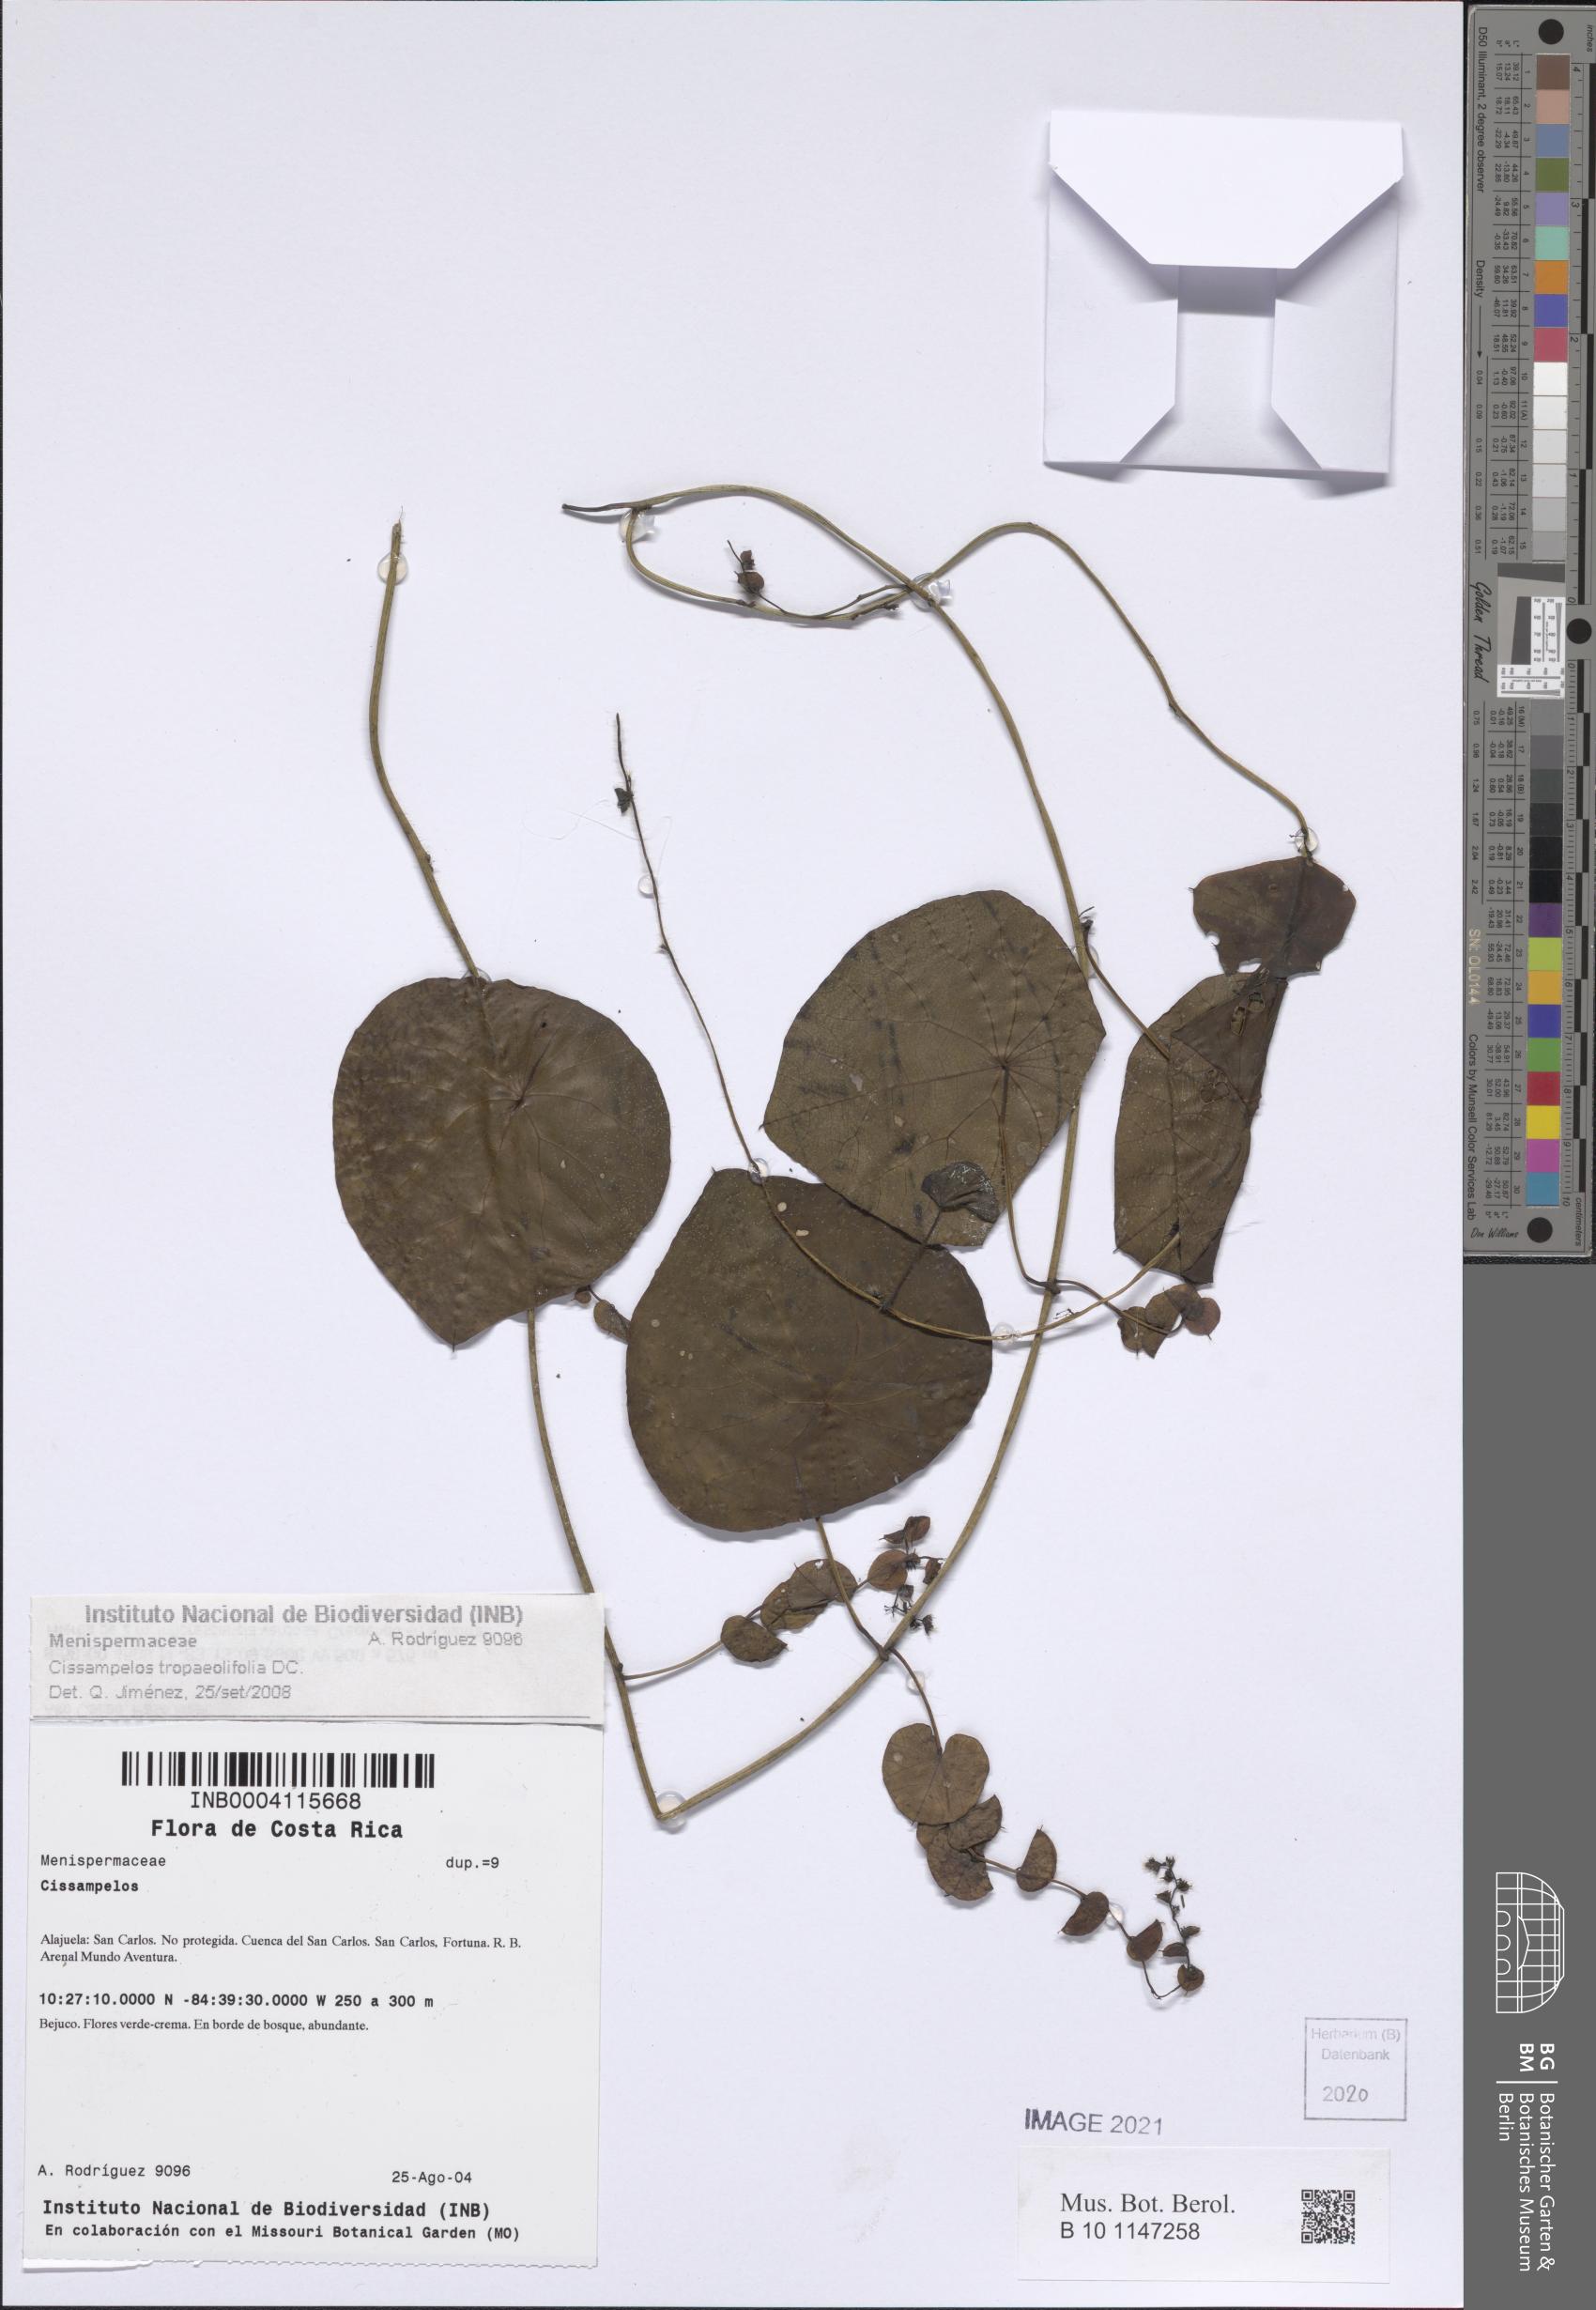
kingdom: Plantae
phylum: Tracheophyta
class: Magnoliopsida
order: Ranunculales
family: Menispermaceae
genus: Cissampelos
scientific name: Cissampelos tropaeolifolia
